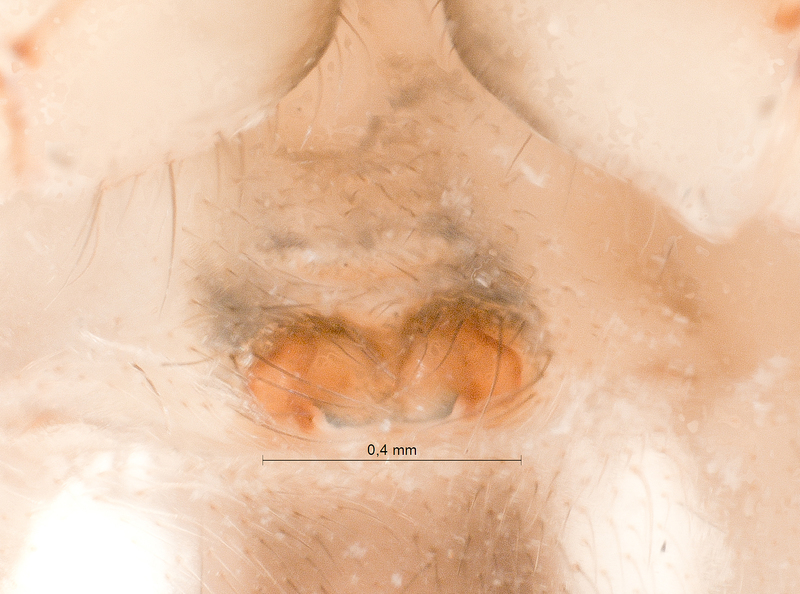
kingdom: Animalia
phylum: Arthropoda
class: Arachnida
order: Araneae
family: Tetragnathidae
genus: Metellina
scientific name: Metellina mengei
